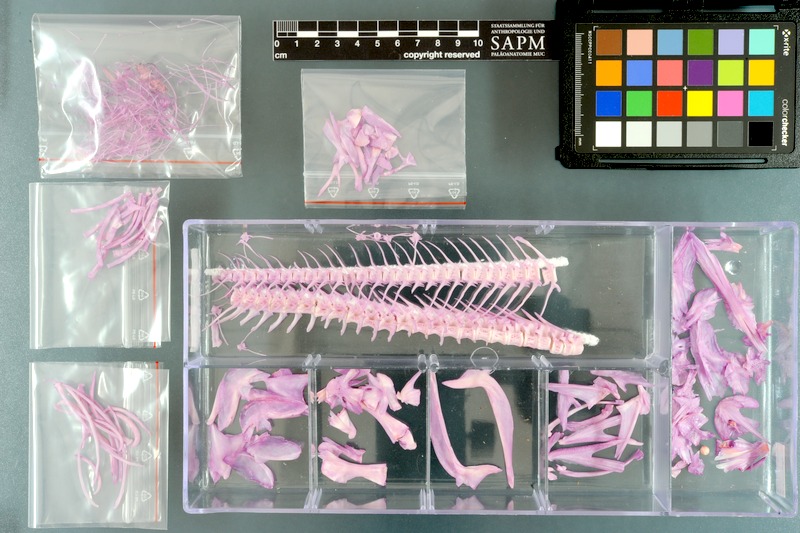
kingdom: Animalia
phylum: Chordata
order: Gadiformes
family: Lotidae
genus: Lota
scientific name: Lota lota
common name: Burbot
